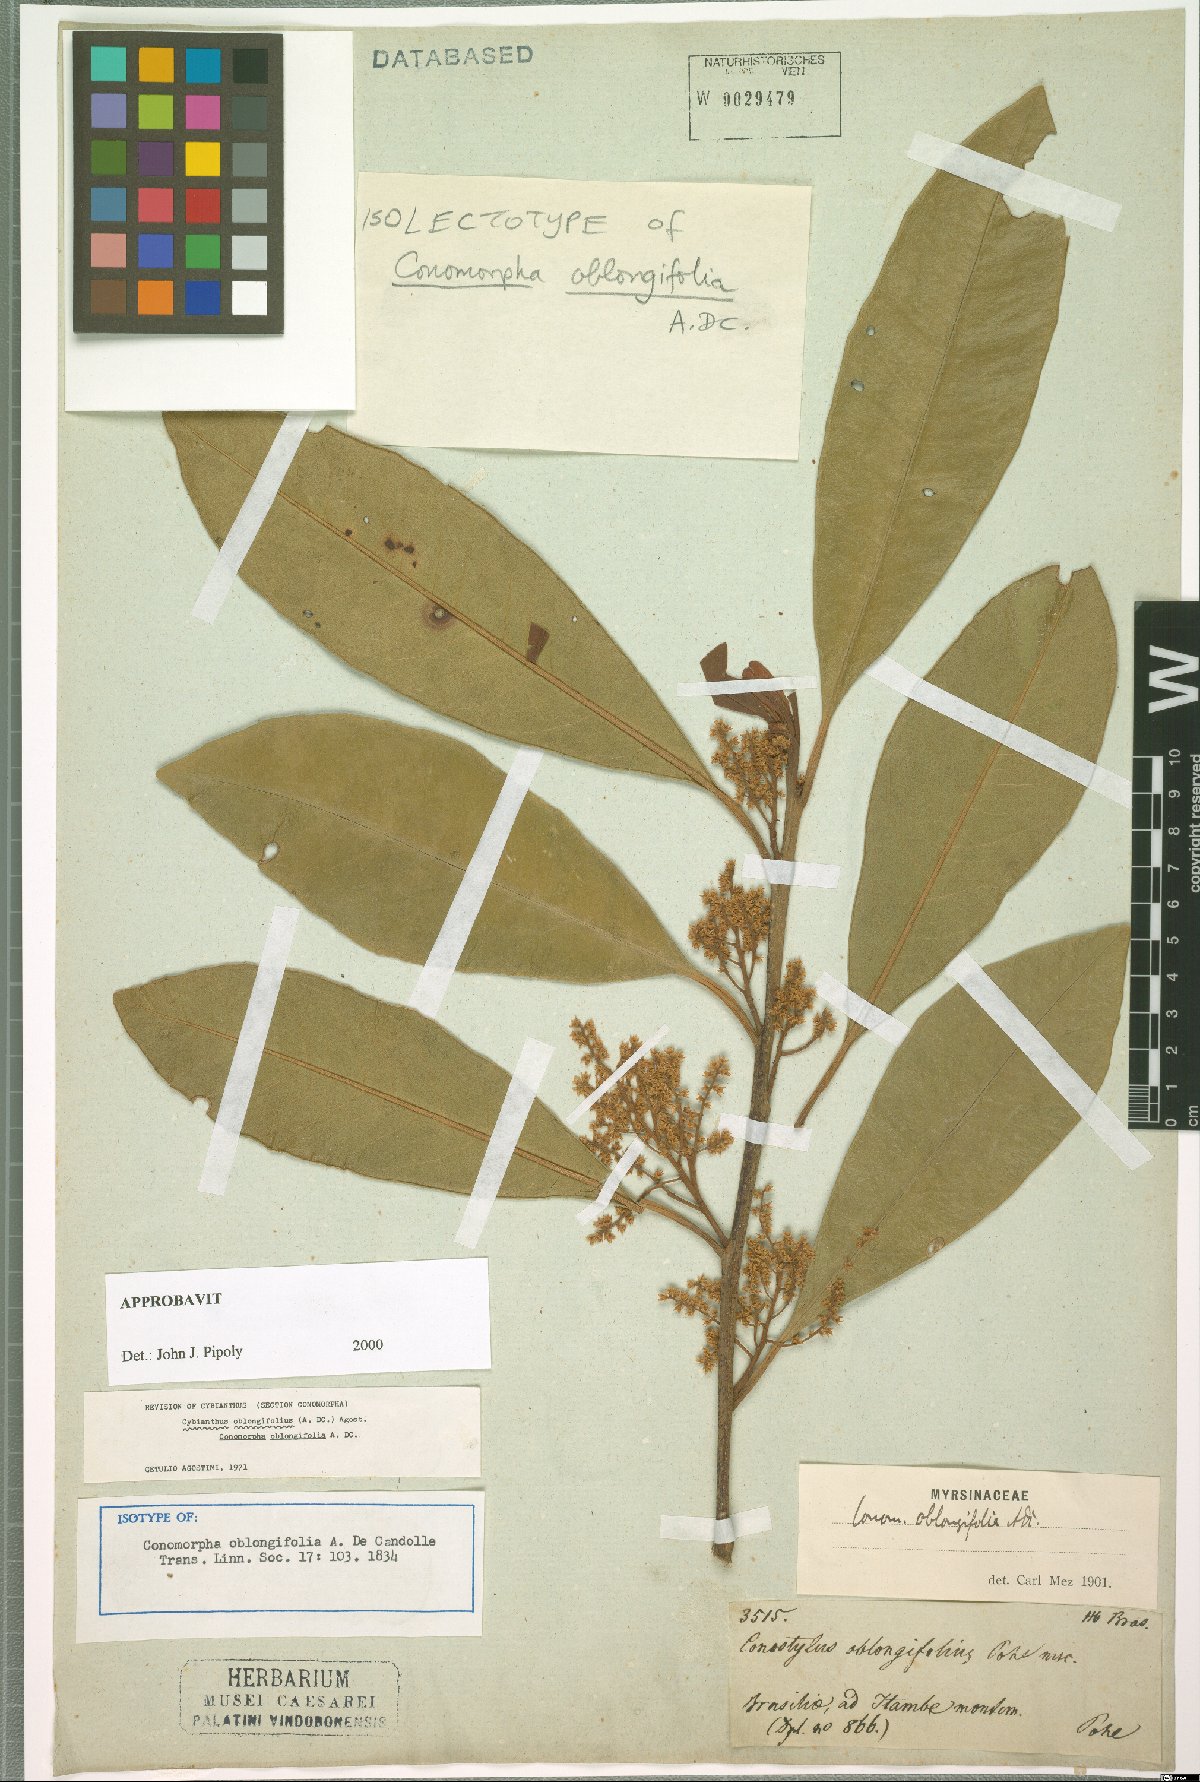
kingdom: Plantae
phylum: Tracheophyta
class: Magnoliopsida
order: Ericales
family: Primulaceae
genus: Cybianthus
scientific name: Cybianthus oblongifolius
